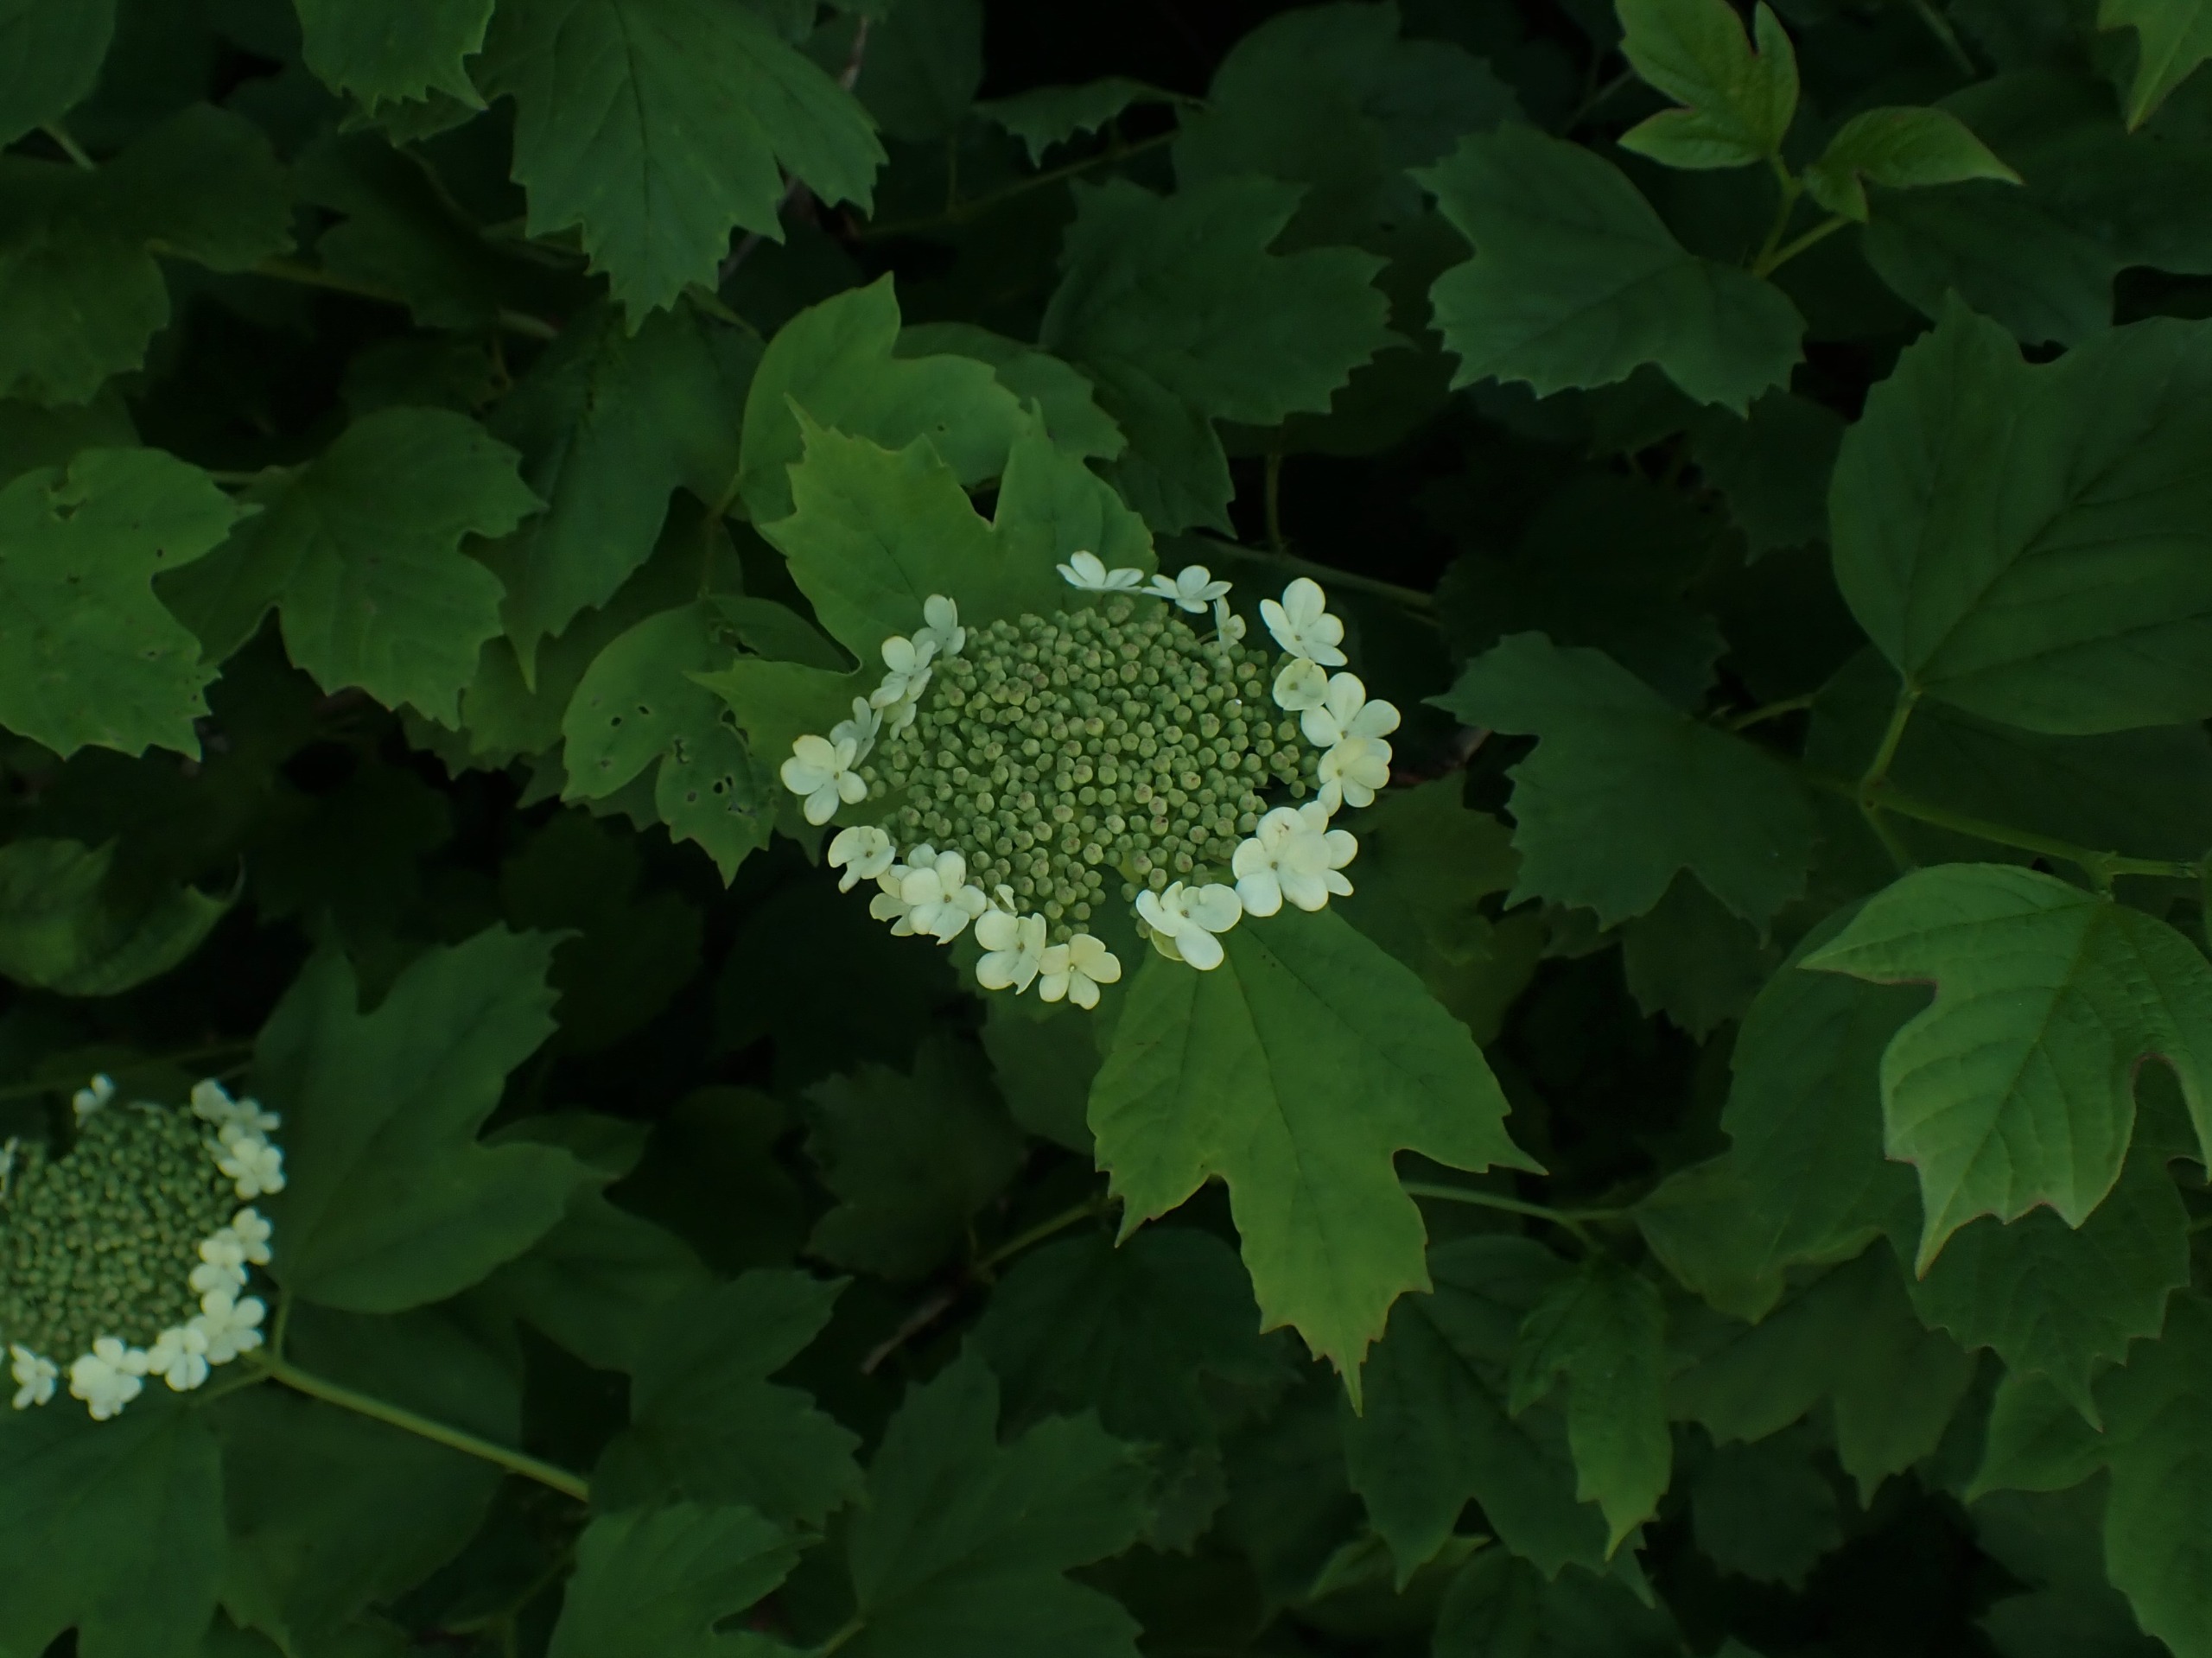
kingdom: Plantae
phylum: Tracheophyta
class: Magnoliopsida
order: Dipsacales
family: Viburnaceae
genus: Viburnum
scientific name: Viburnum opulus
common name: Kvalkved
